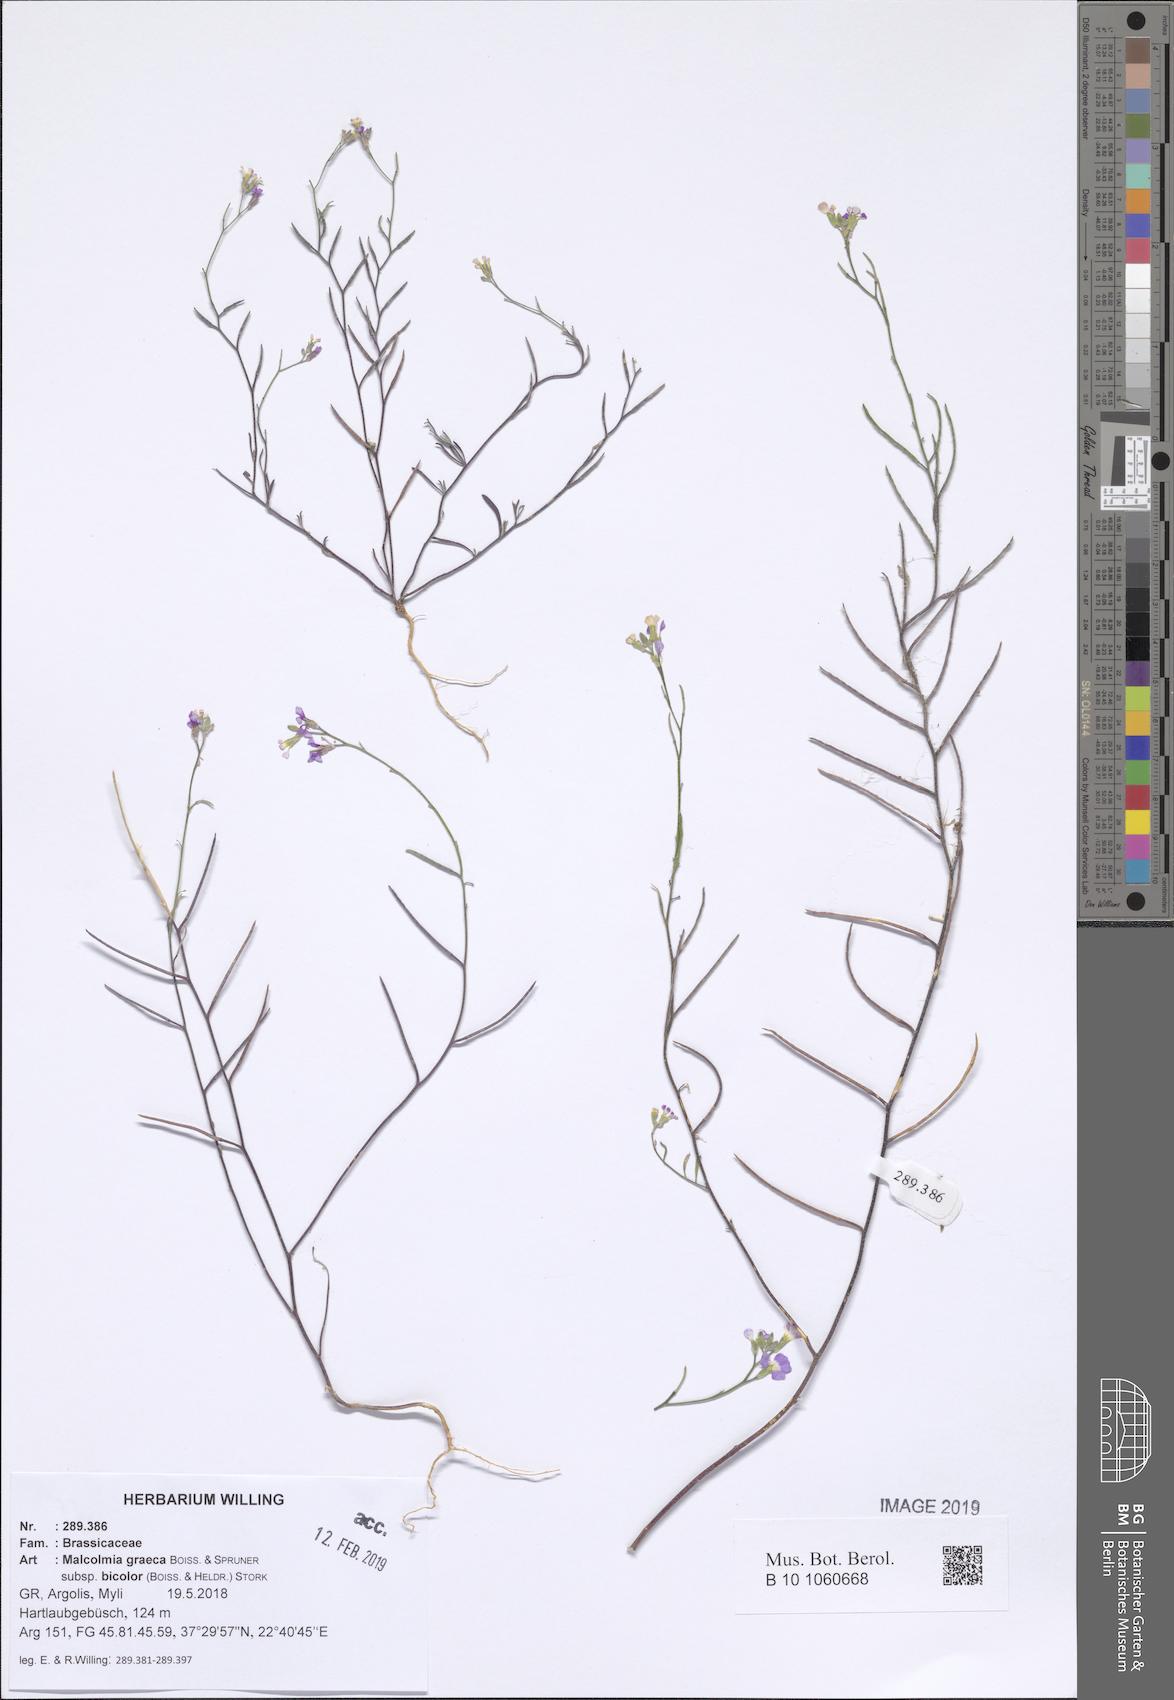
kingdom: Plantae
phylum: Tracheophyta
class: Magnoliopsida
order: Brassicales
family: Brassicaceae
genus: Malcolmia
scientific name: Malcolmia graeca
